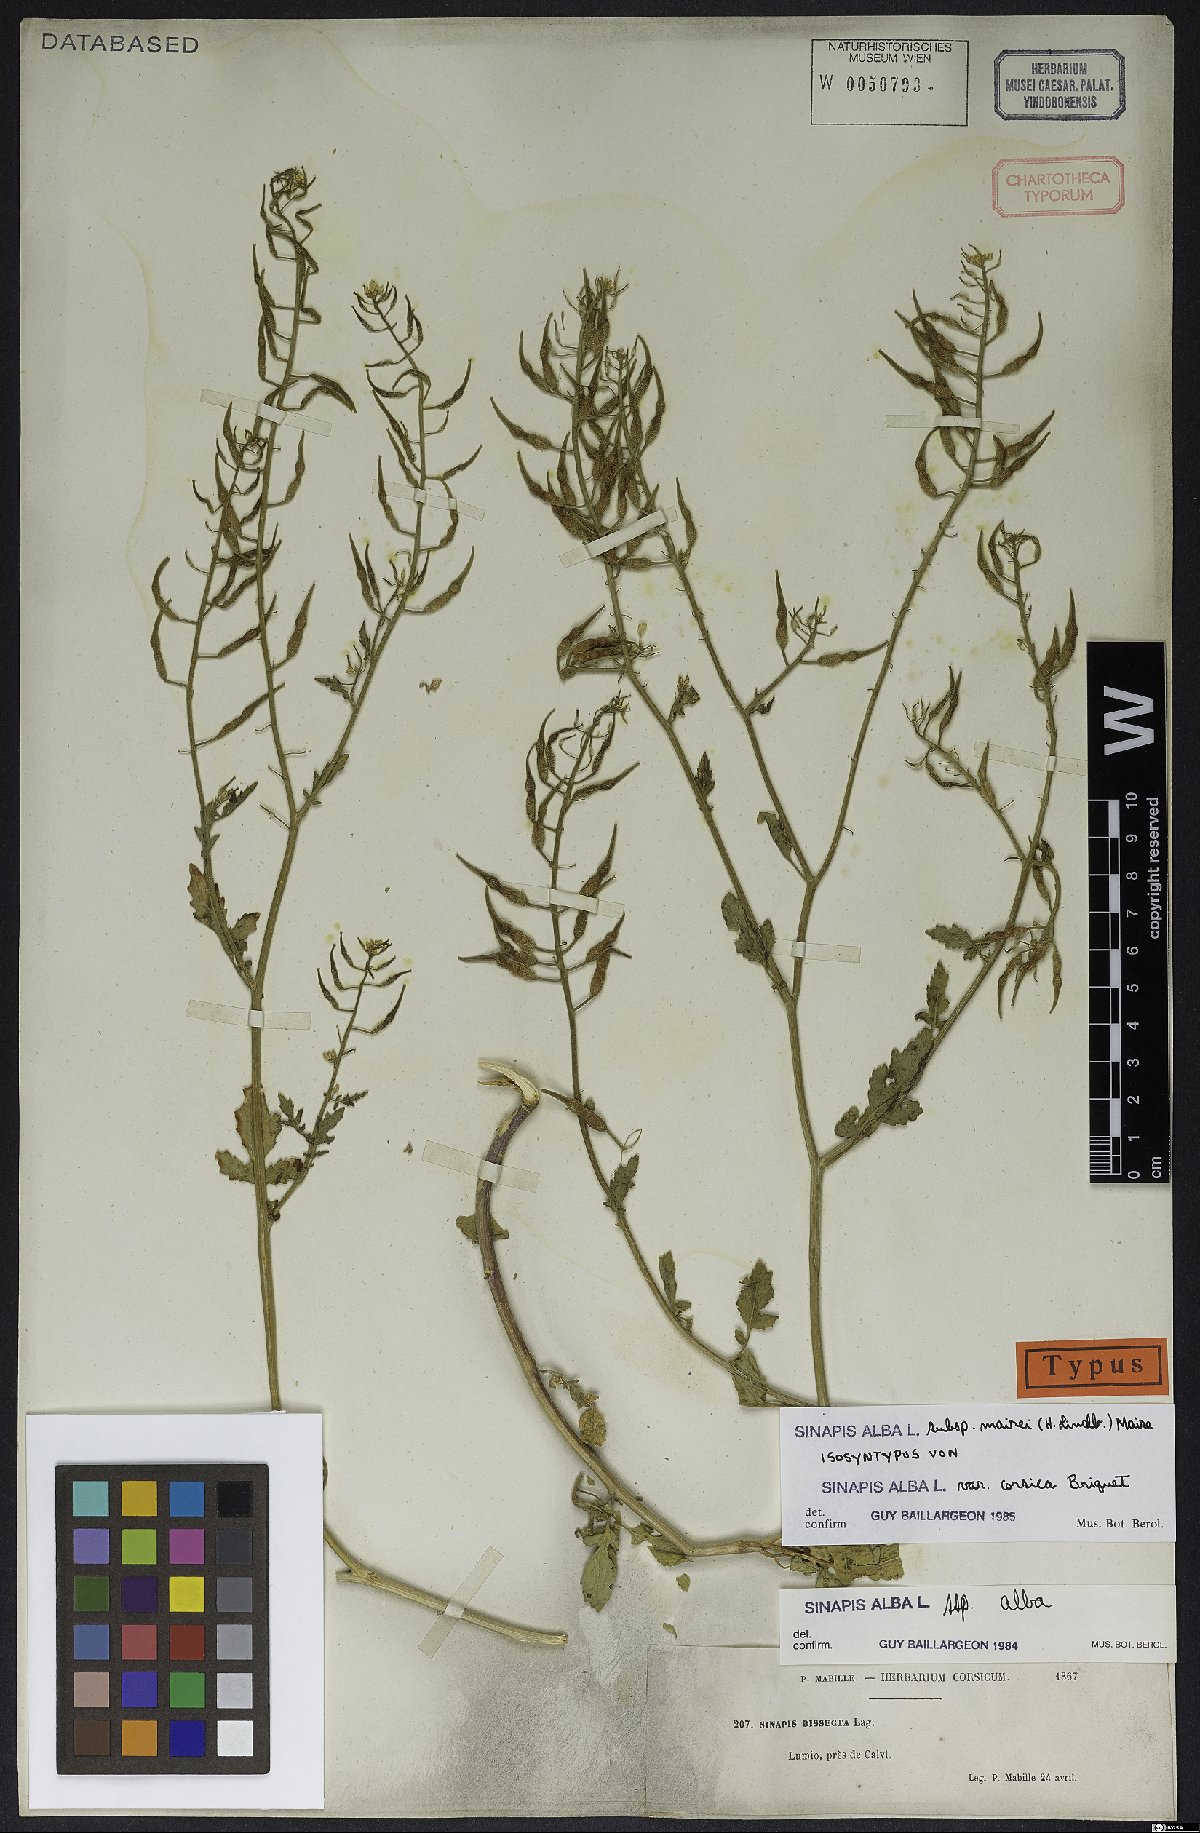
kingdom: Plantae
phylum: Tracheophyta
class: Magnoliopsida
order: Brassicales
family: Brassicaceae
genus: Sinapis
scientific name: Sinapis alba
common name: White mustard
